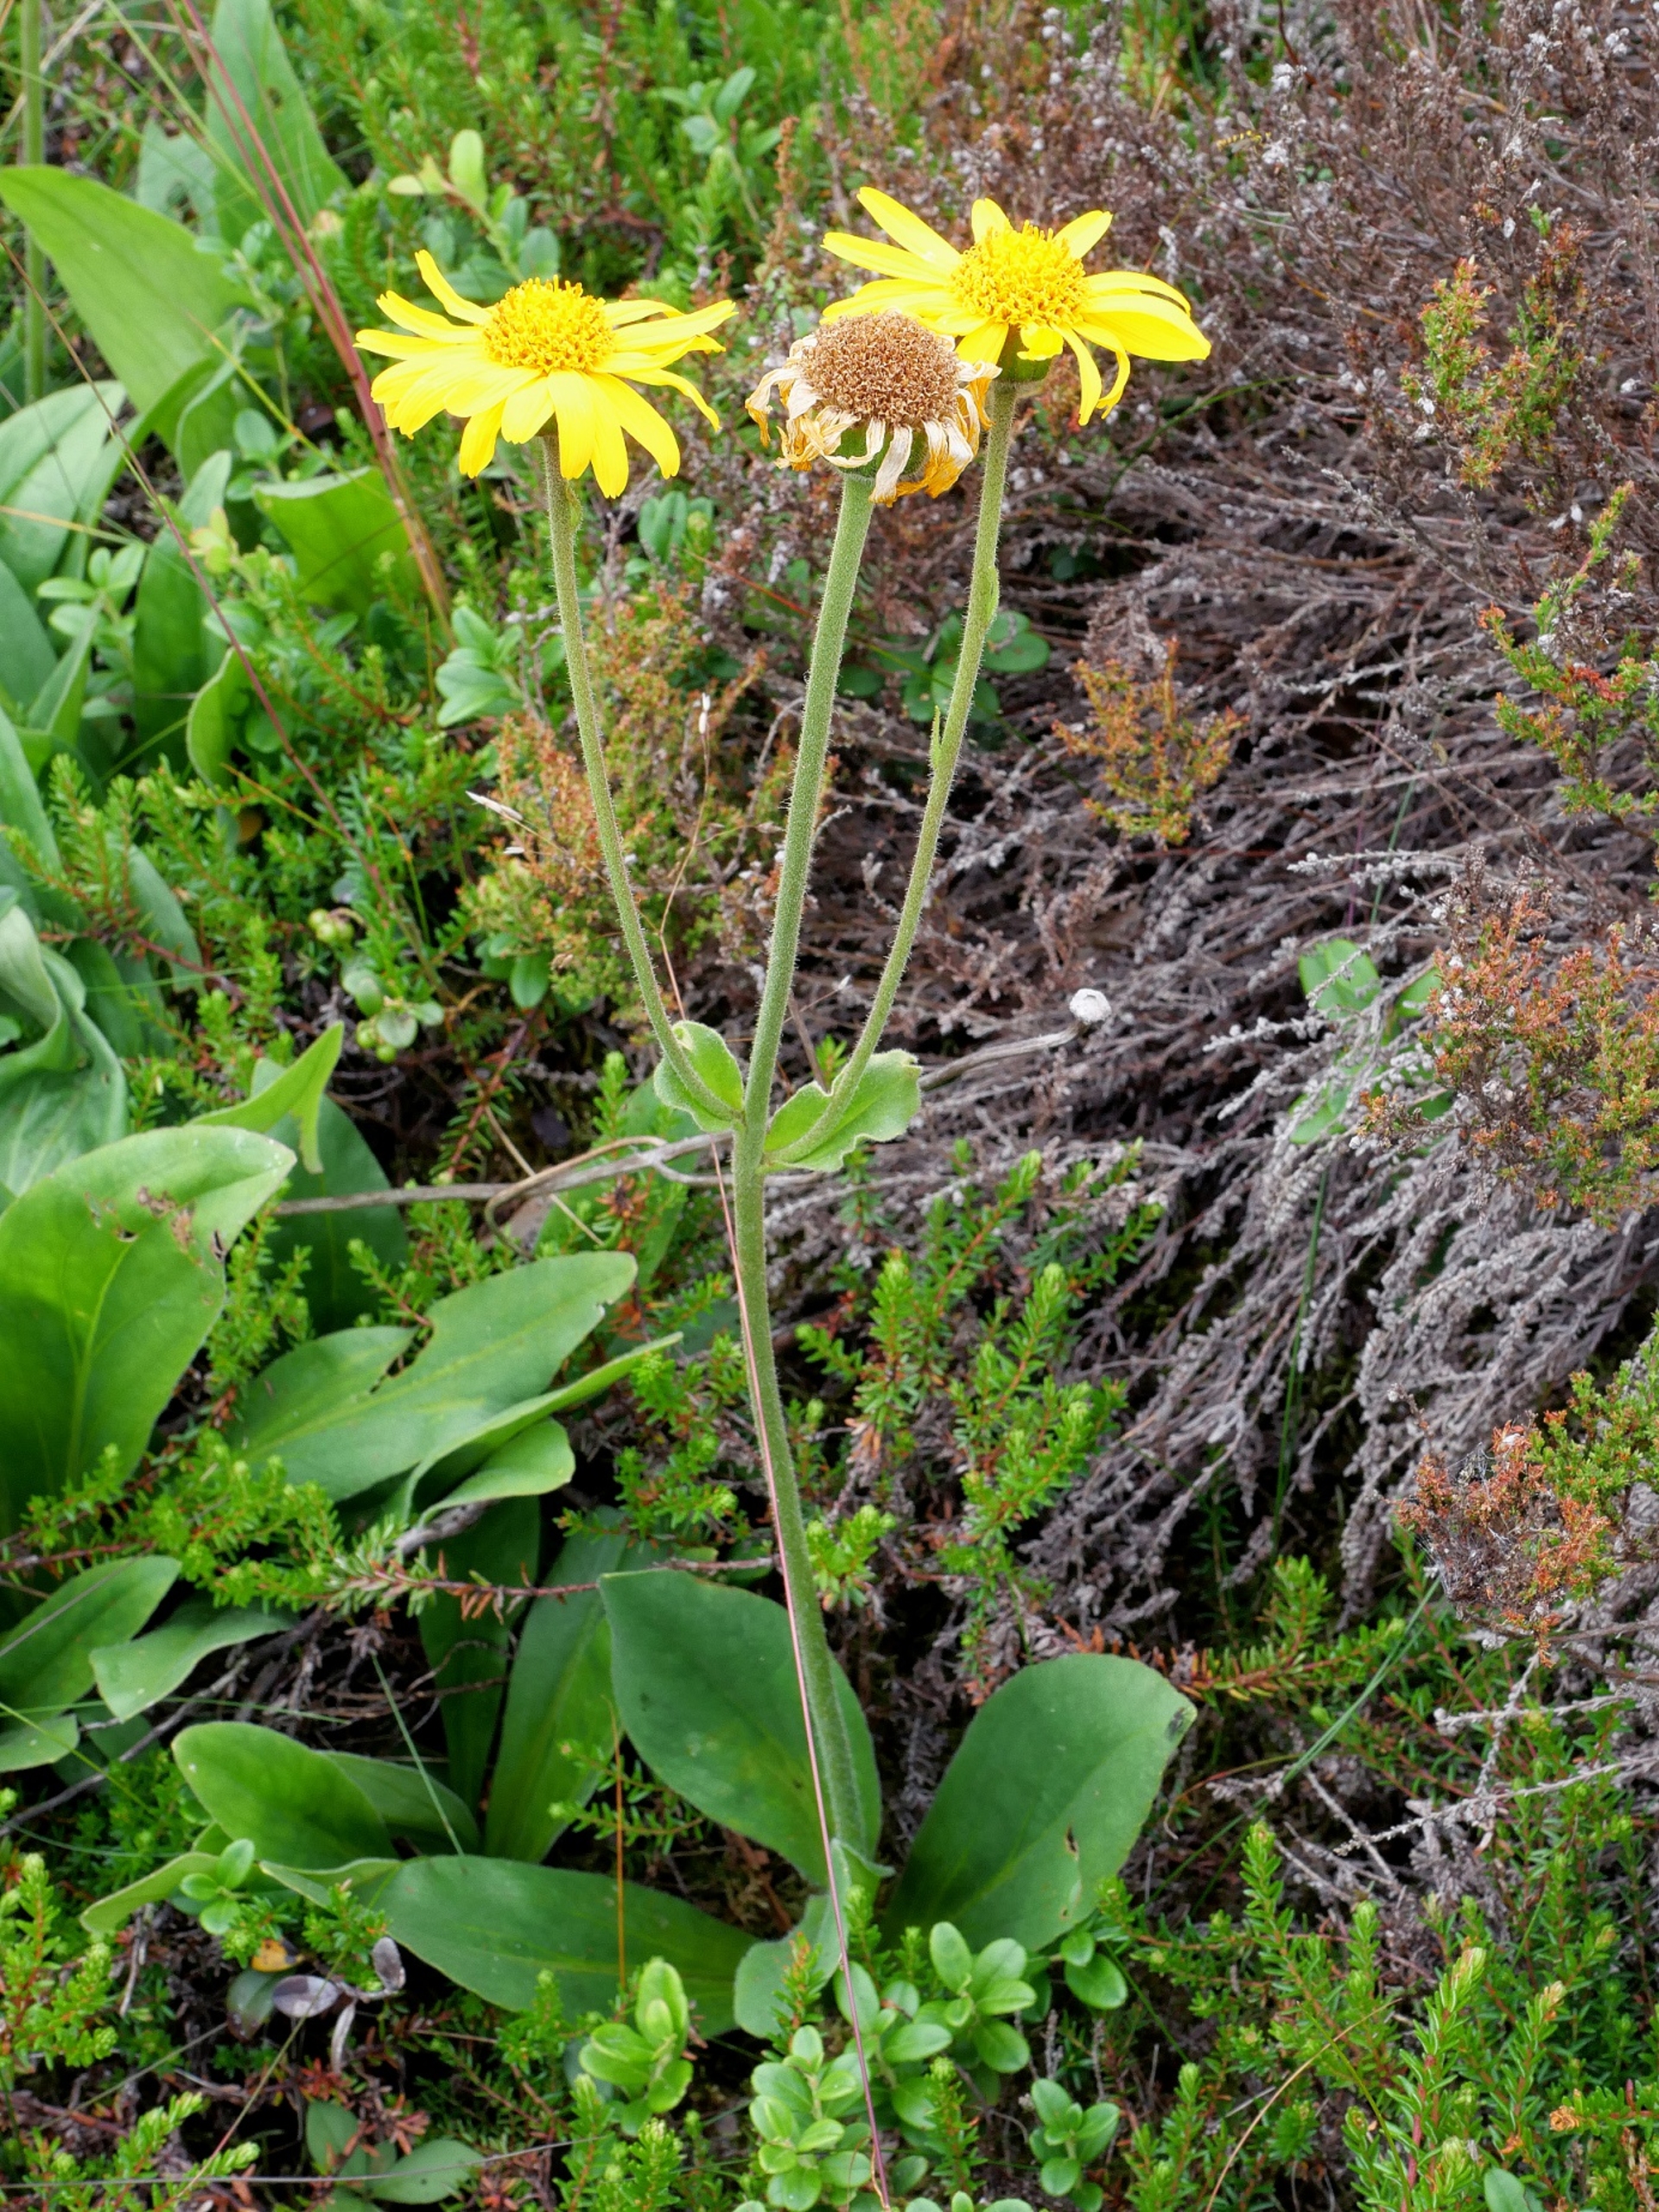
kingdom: Plantae
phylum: Tracheophyta
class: Magnoliopsida
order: Asterales
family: Asteraceae
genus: Arnica
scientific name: Arnica montana
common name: Guldblomme
